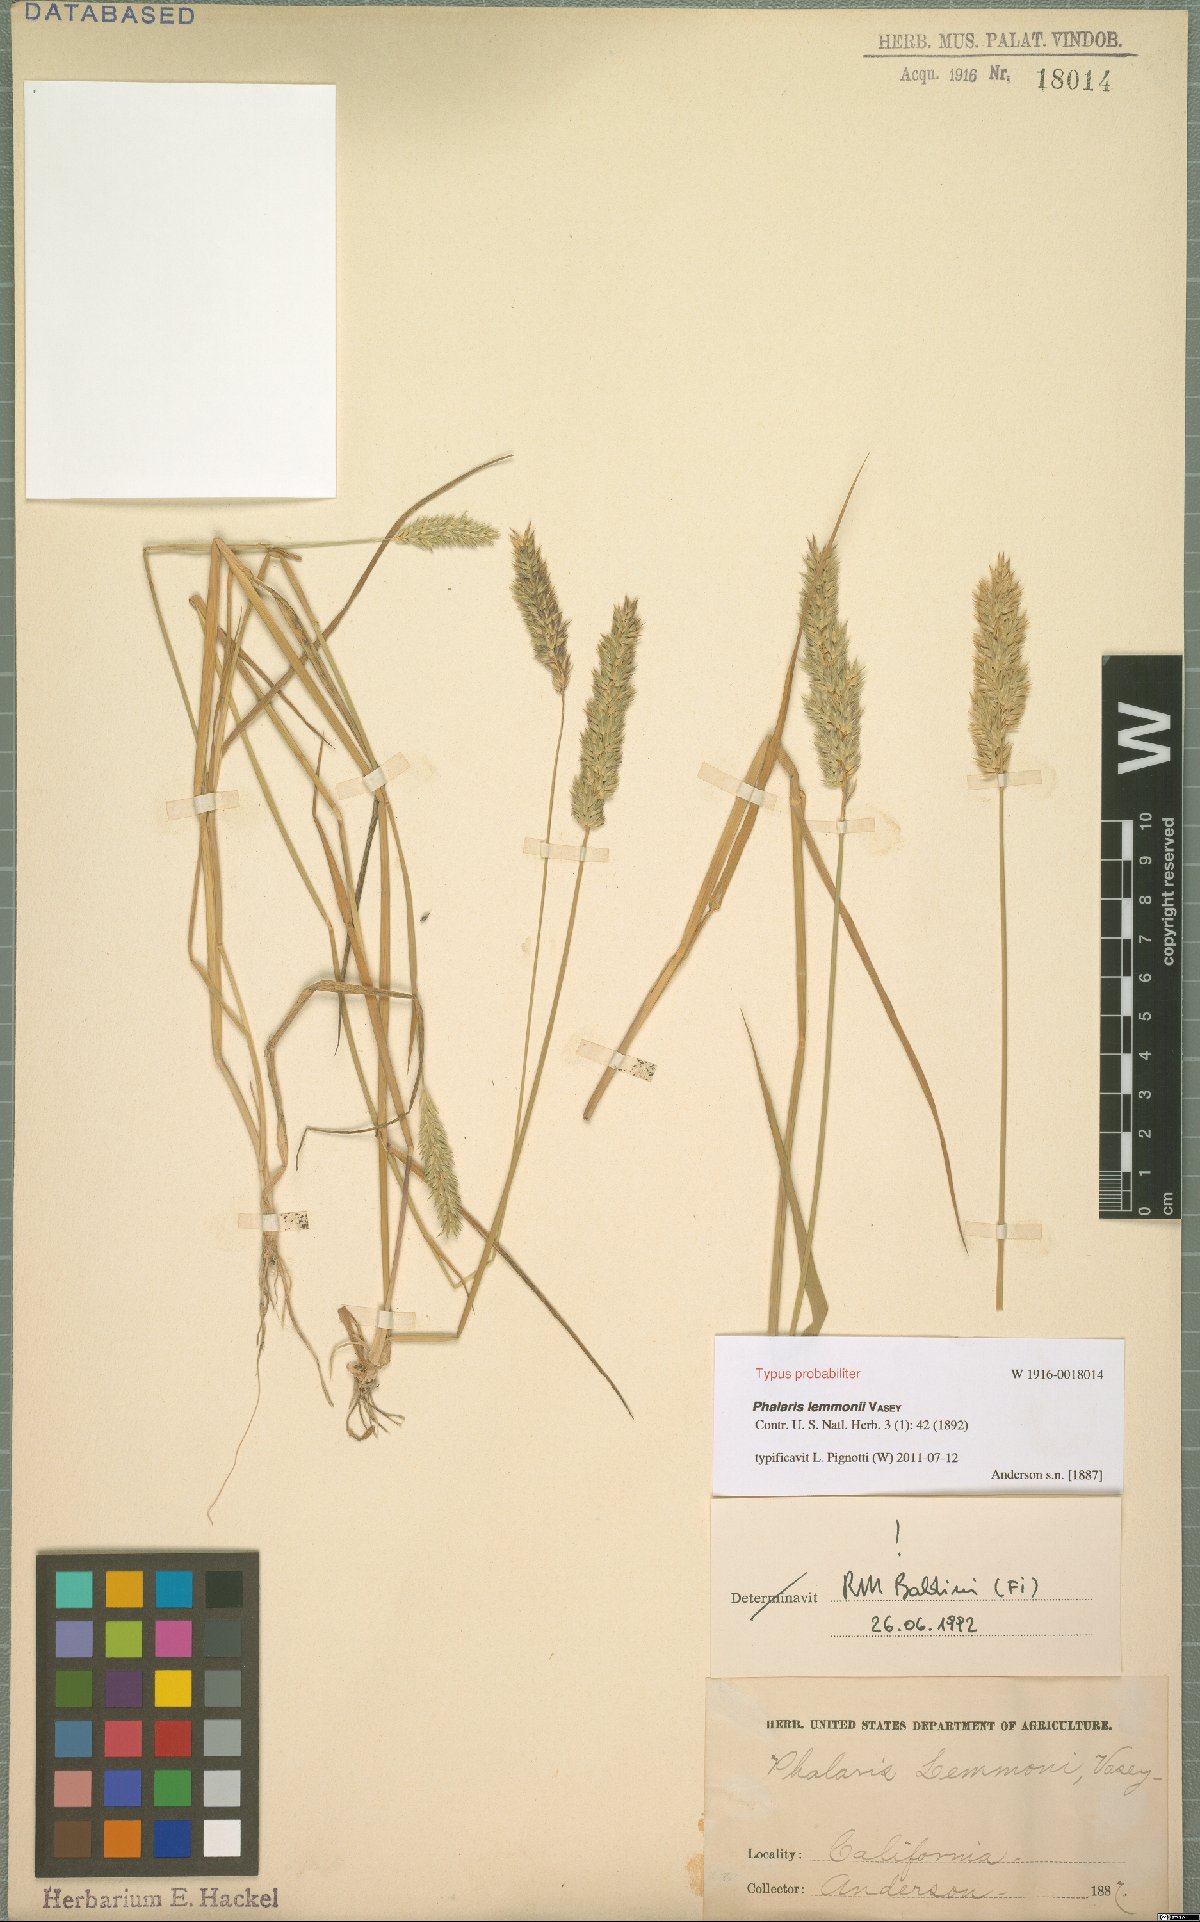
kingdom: Plantae
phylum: Tracheophyta
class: Liliopsida
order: Poales
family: Poaceae
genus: Phalaris
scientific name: Phalaris lemmonii
